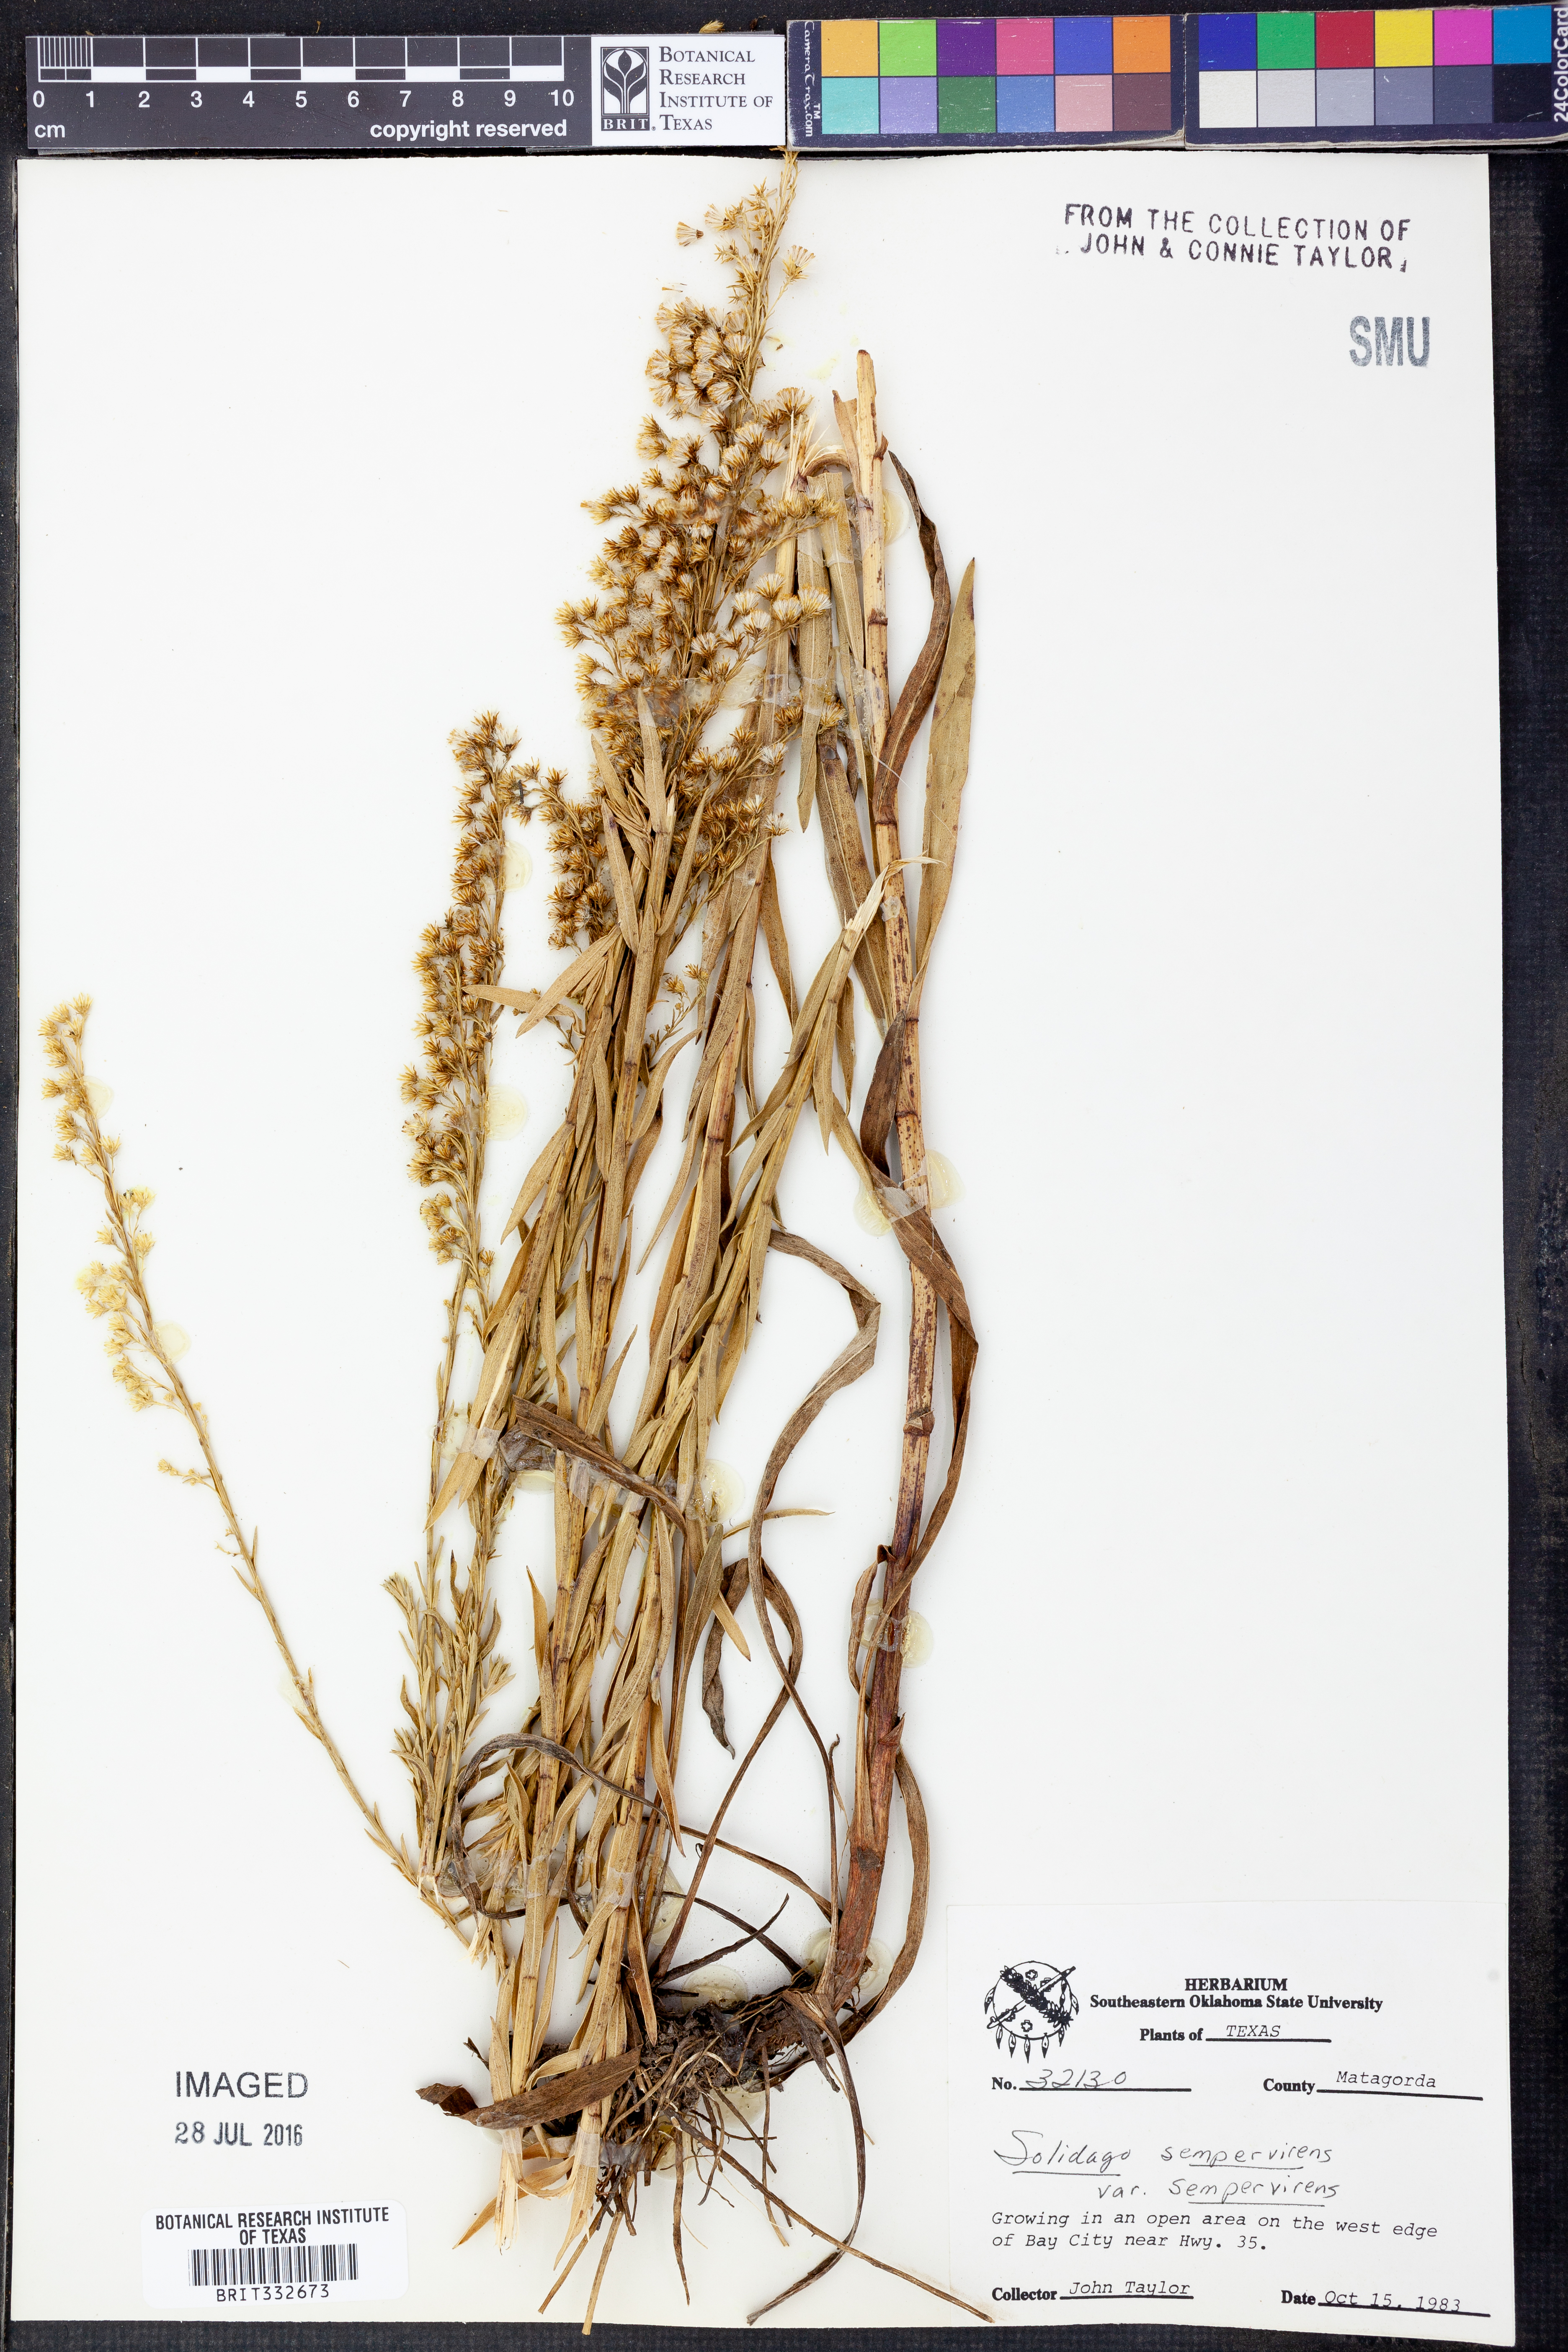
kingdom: Plantae
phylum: Tracheophyta
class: Magnoliopsida
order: Asterales
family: Asteraceae
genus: Solidago
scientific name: Solidago sempervirens
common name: Salt-marsh goldenrod
